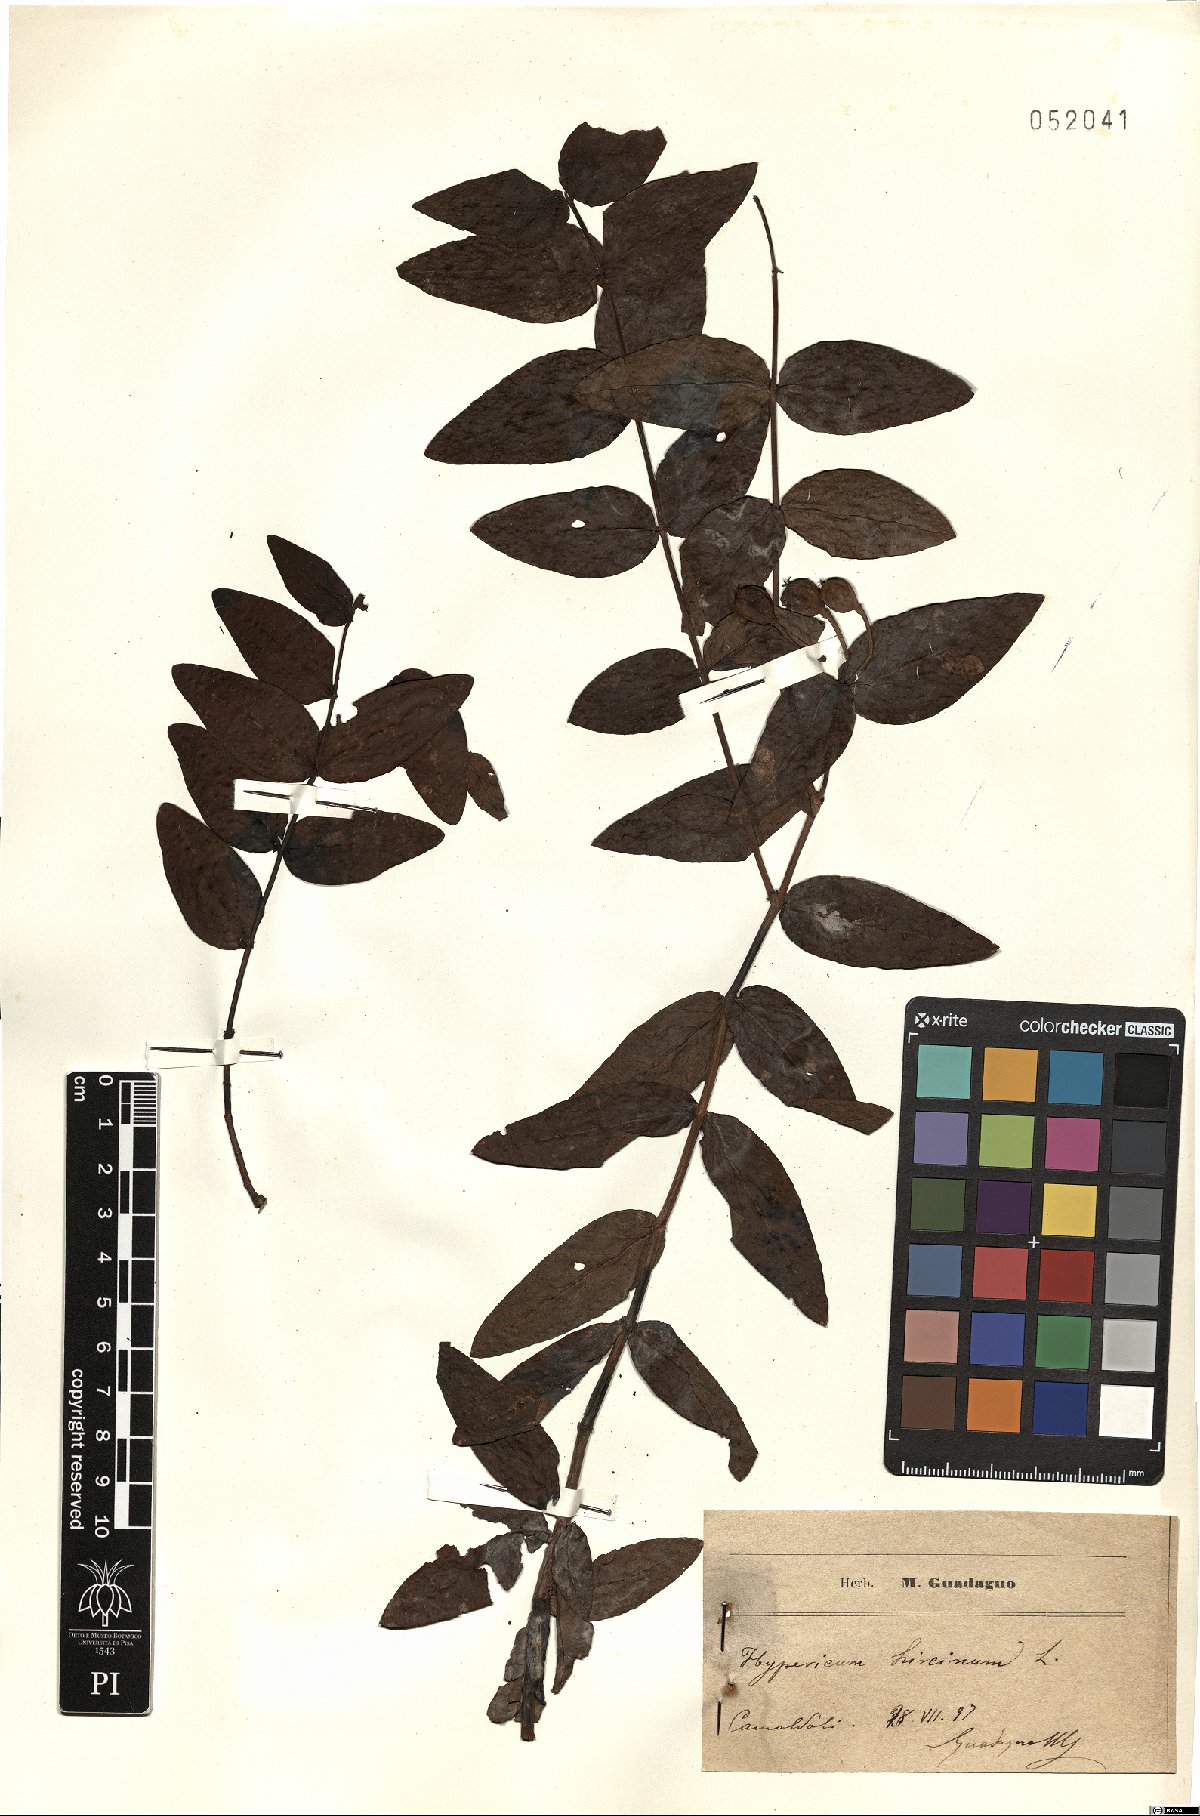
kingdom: Plantae
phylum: Tracheophyta
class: Magnoliopsida
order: Malpighiales
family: Hypericaceae
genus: Hypericum
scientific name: Hypericum hircinum
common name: Stinking tutsan
